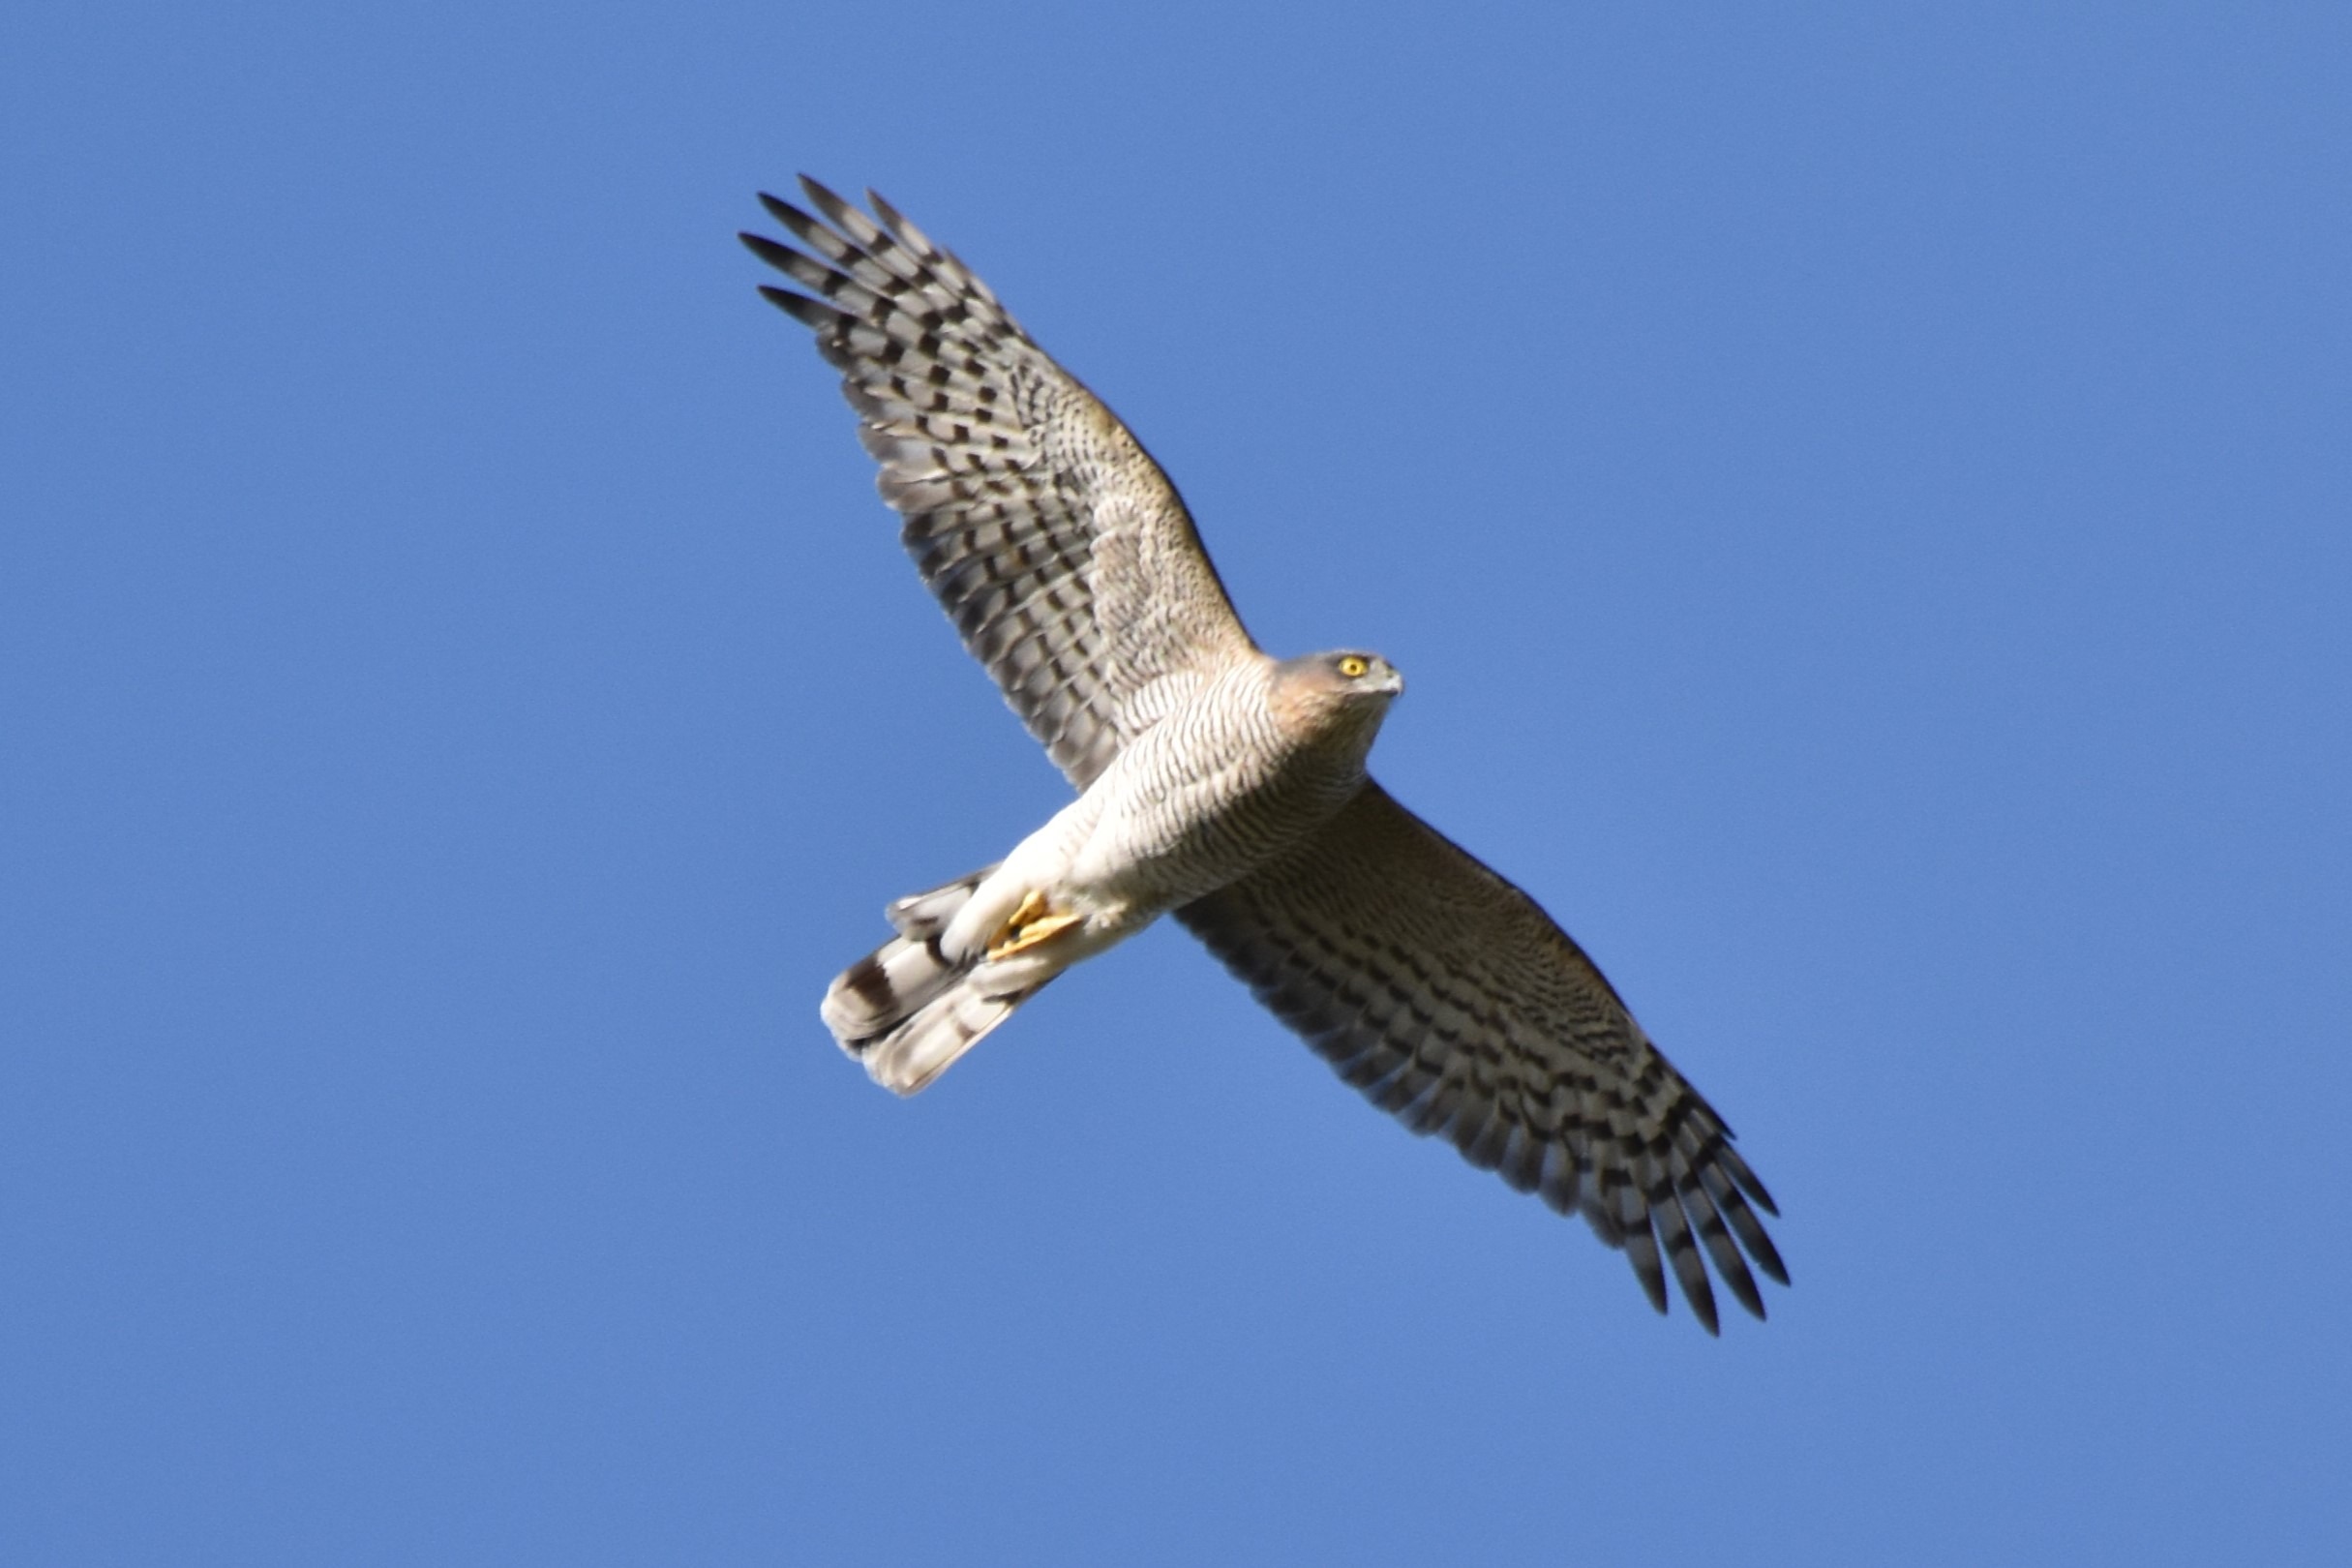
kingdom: Animalia
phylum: Chordata
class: Aves
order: Accipitriformes
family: Accipitridae
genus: Accipiter
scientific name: Accipiter nisus
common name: Spurvehøg
